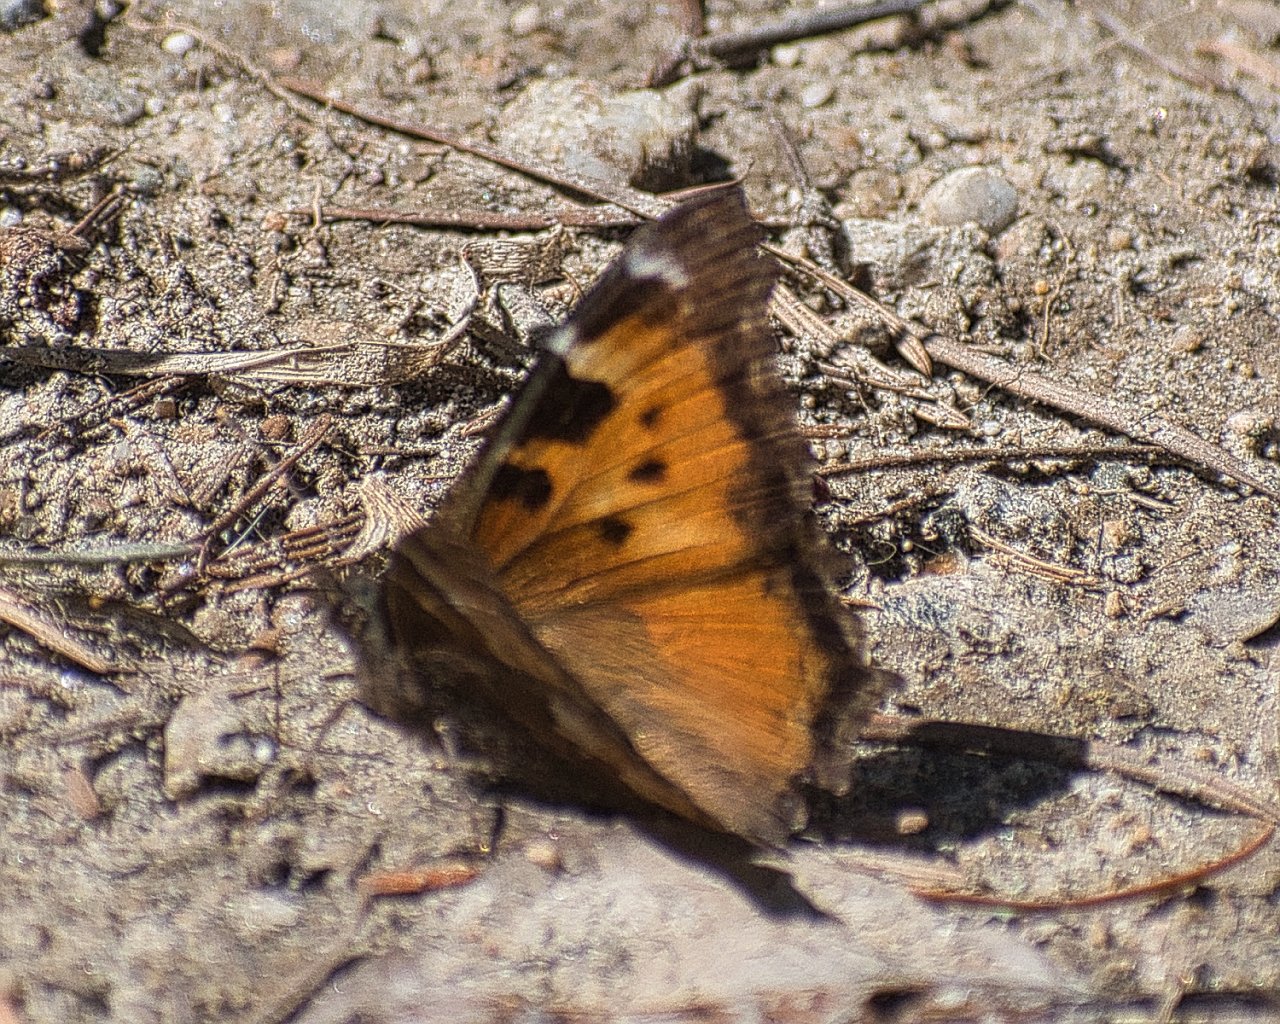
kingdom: Animalia
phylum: Arthropoda
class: Insecta
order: Lepidoptera
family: Nymphalidae
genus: Nymphalis
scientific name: Nymphalis californica
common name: California Tortoiseshell
